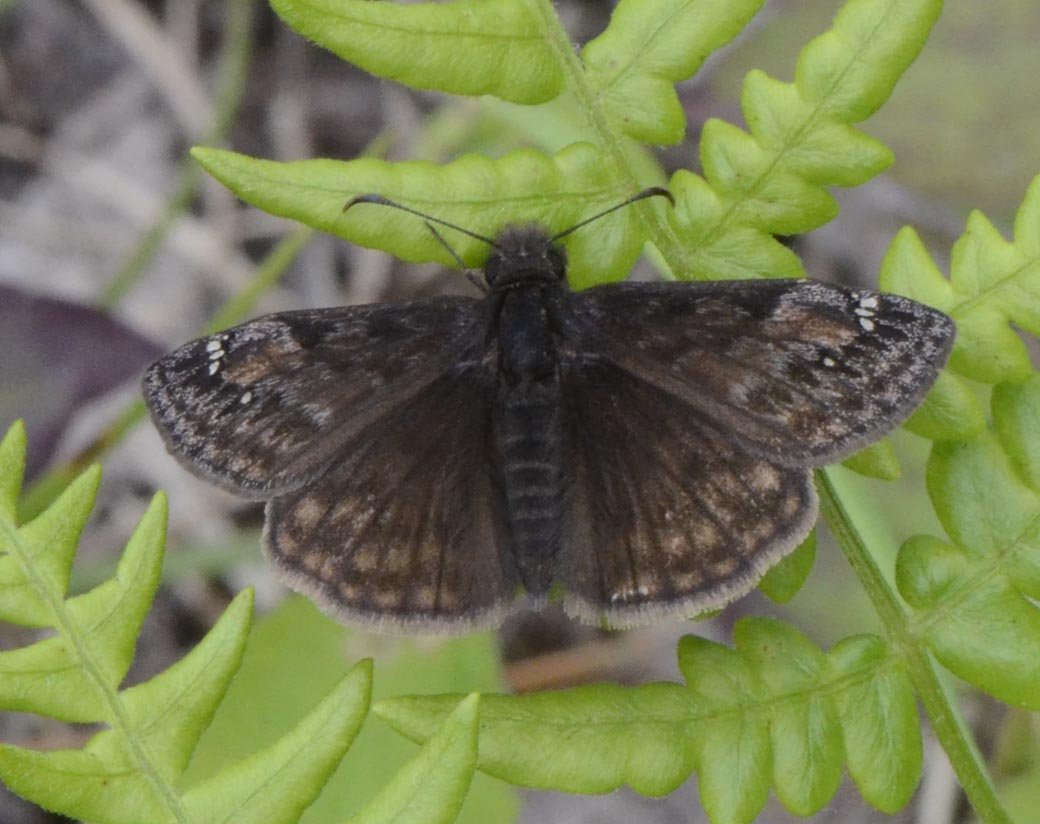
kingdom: Animalia
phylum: Arthropoda
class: Insecta
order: Lepidoptera
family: Hesperiidae
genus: Gesta
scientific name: Gesta
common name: Juvenal's Duskywing
